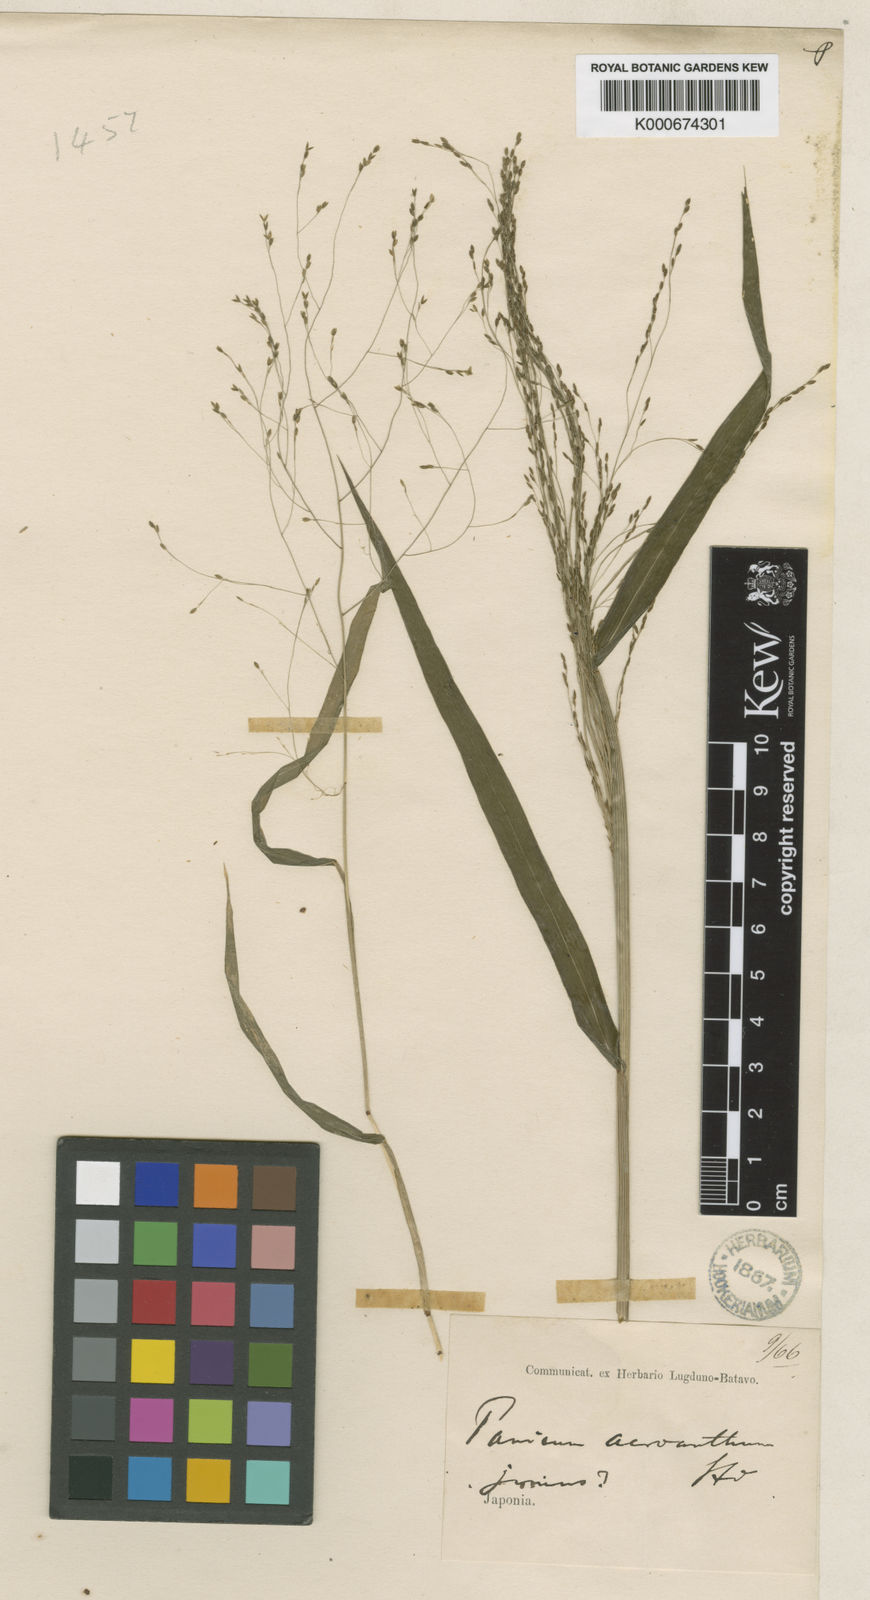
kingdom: Plantae
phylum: Tracheophyta
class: Liliopsida
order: Poales
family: Poaceae
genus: Panicum
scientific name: Panicum bisulcatum
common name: Japanese panicgrass
